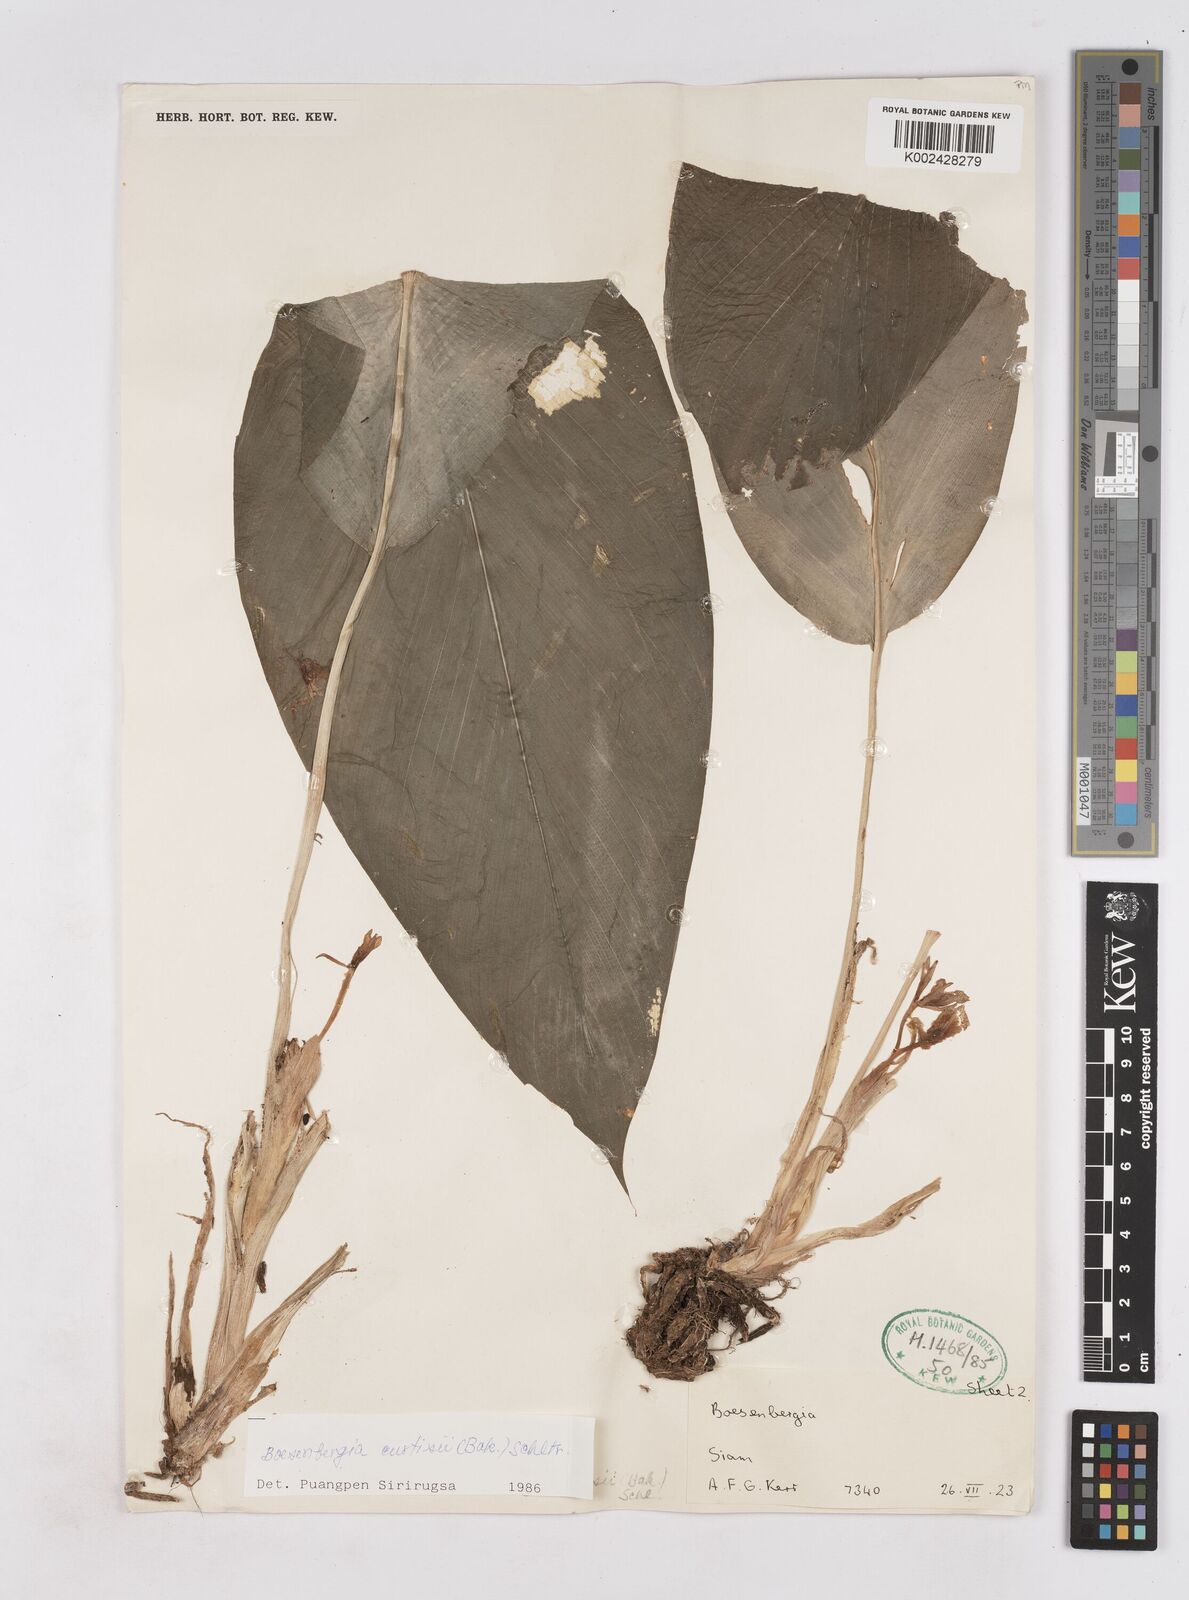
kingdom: Plantae
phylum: Tracheophyta
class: Liliopsida
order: Zingiberales
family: Zingiberaceae
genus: Boesenbergia
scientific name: Boesenbergia curtisii
